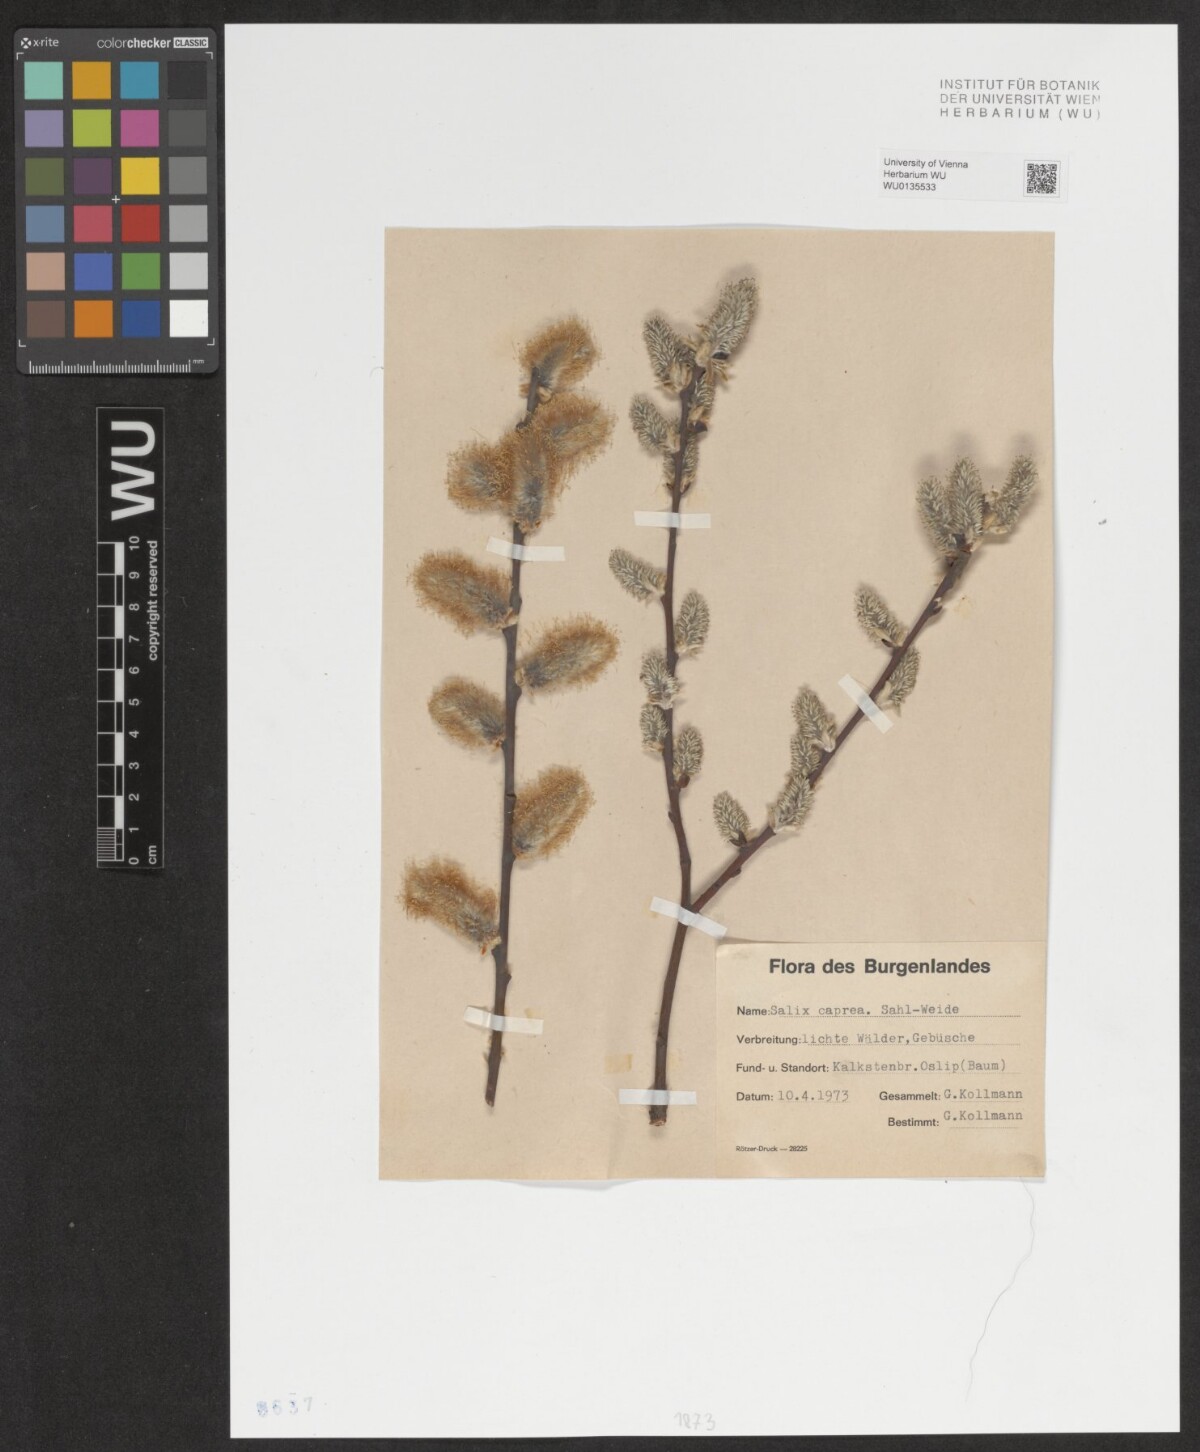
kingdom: Plantae
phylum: Tracheophyta
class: Magnoliopsida
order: Malpighiales
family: Salicaceae
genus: Salix
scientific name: Salix caprea
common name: Goat willow
